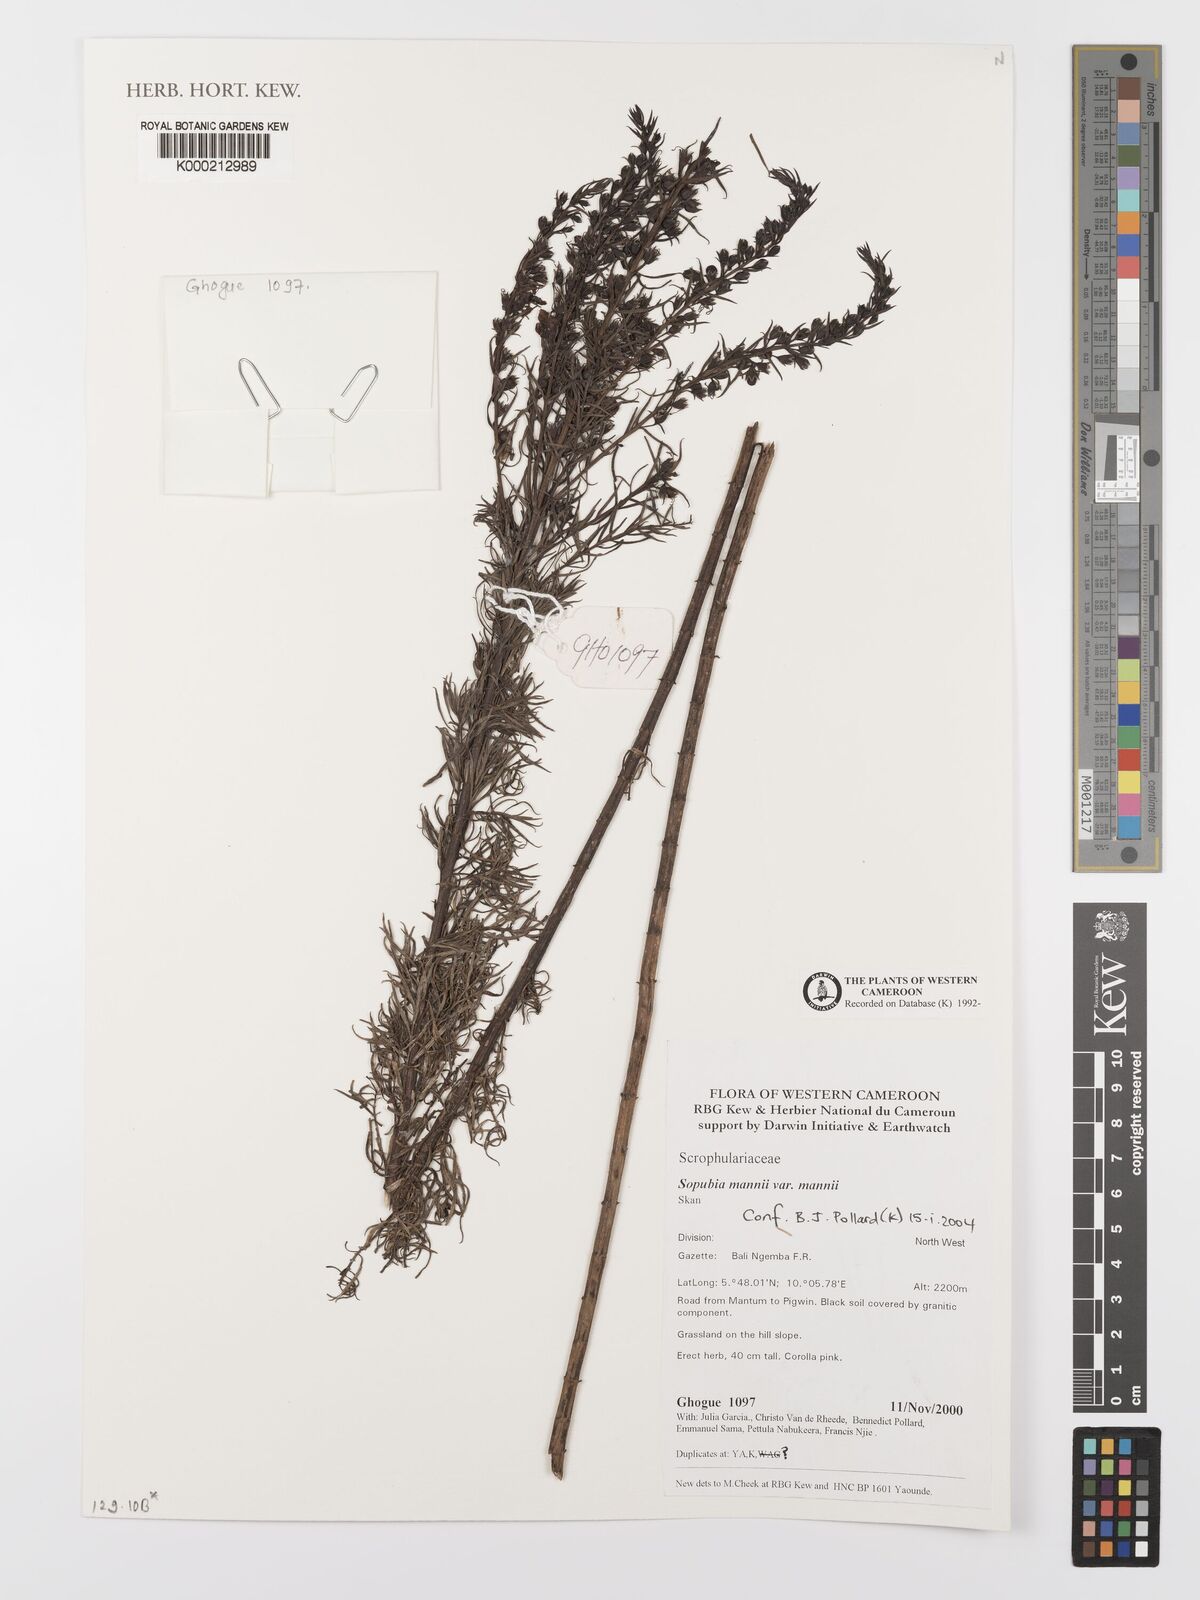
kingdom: Plantae
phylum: Tracheophyta
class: Magnoliopsida
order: Lamiales
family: Orobanchaceae
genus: Sopubia
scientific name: Sopubia mannii
